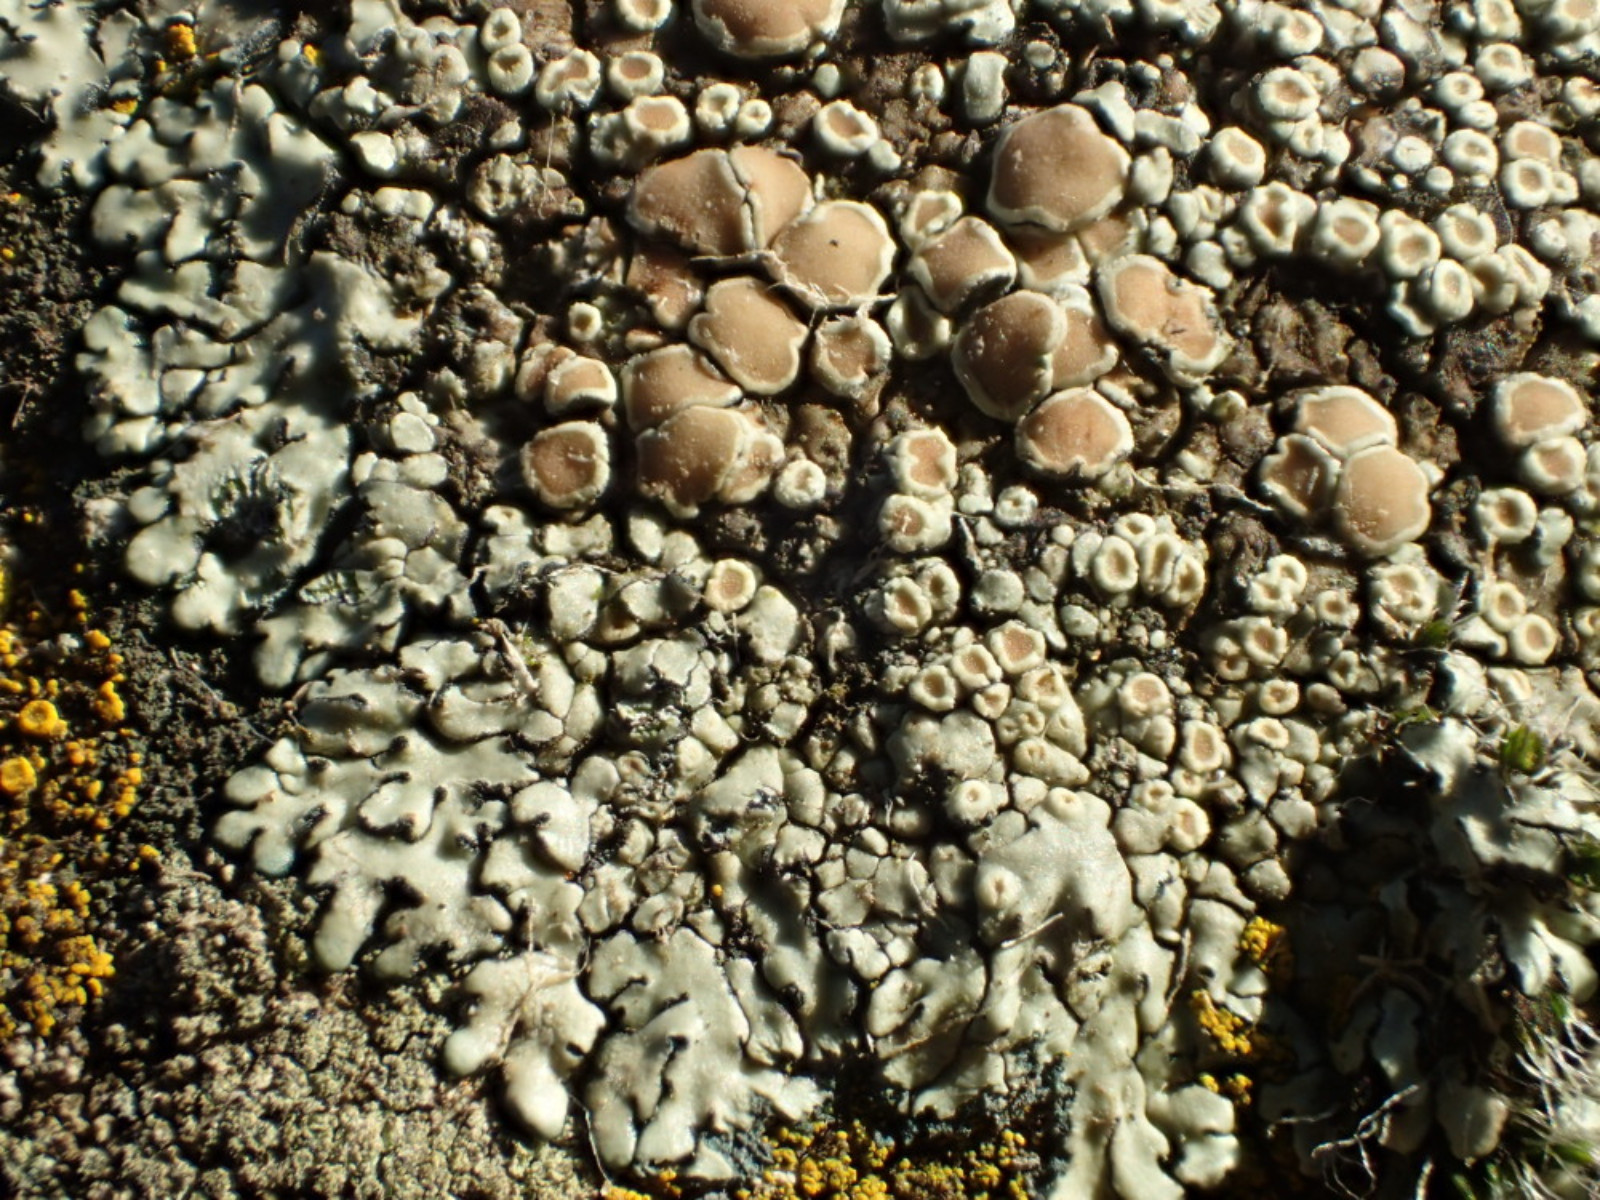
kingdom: Fungi
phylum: Ascomycota
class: Lecanoromycetes
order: Lecanorales
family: Lecanoraceae
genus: Protoparmeliopsis
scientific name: Protoparmeliopsis muralis
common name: randfliget kantskivelav
